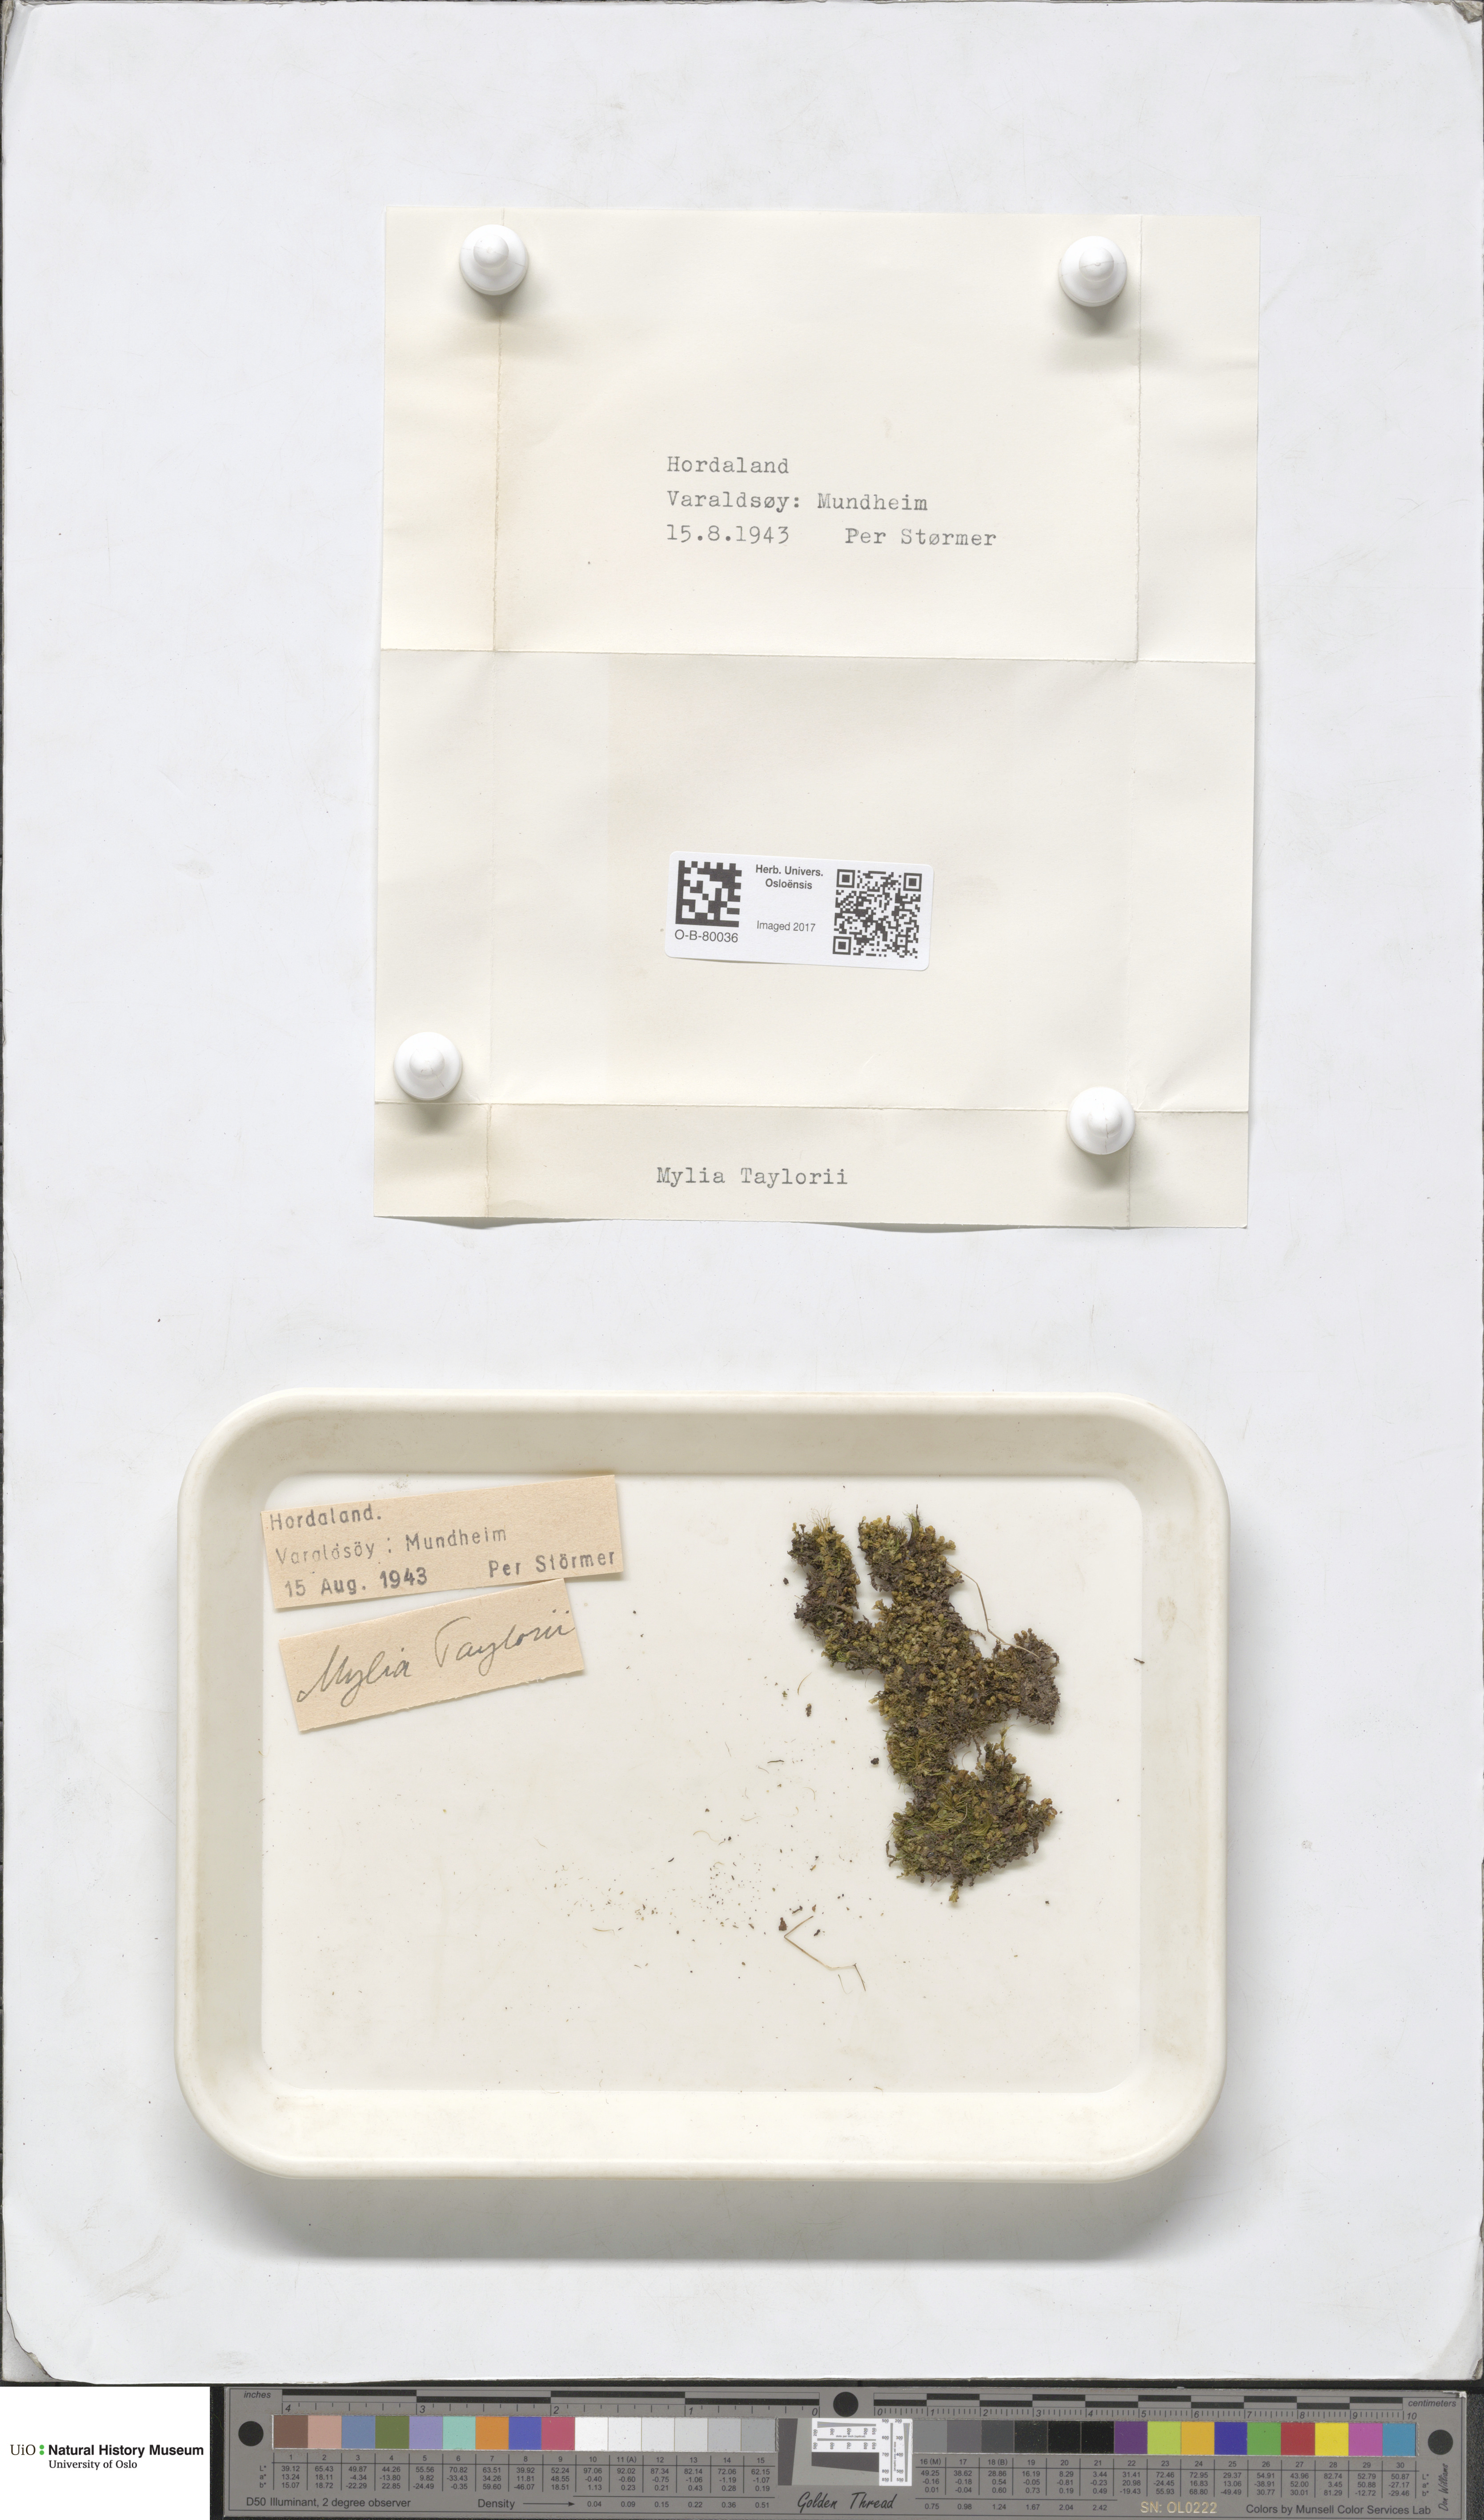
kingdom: Plantae
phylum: Marchantiophyta
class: Jungermanniopsida
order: Jungermanniales
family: Myliaceae
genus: Mylia
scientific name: Mylia taylorii
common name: Taylor s flapwort
